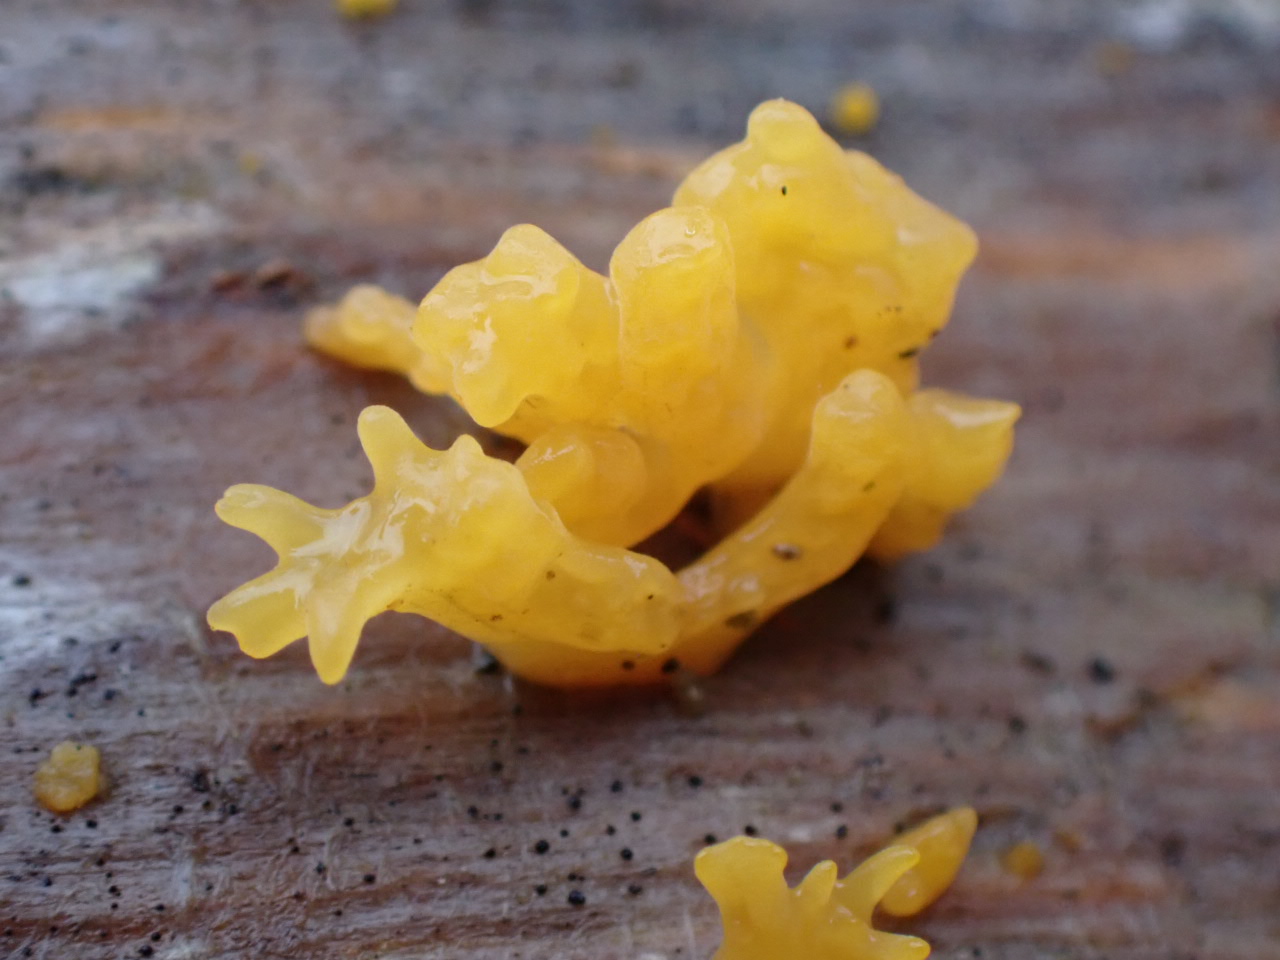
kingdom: Fungi
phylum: Basidiomycota
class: Dacrymycetes
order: Dacrymycetales
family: Dacrymycetaceae
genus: Calocera
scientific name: Calocera furcata
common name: fyrre-guldgaffel
